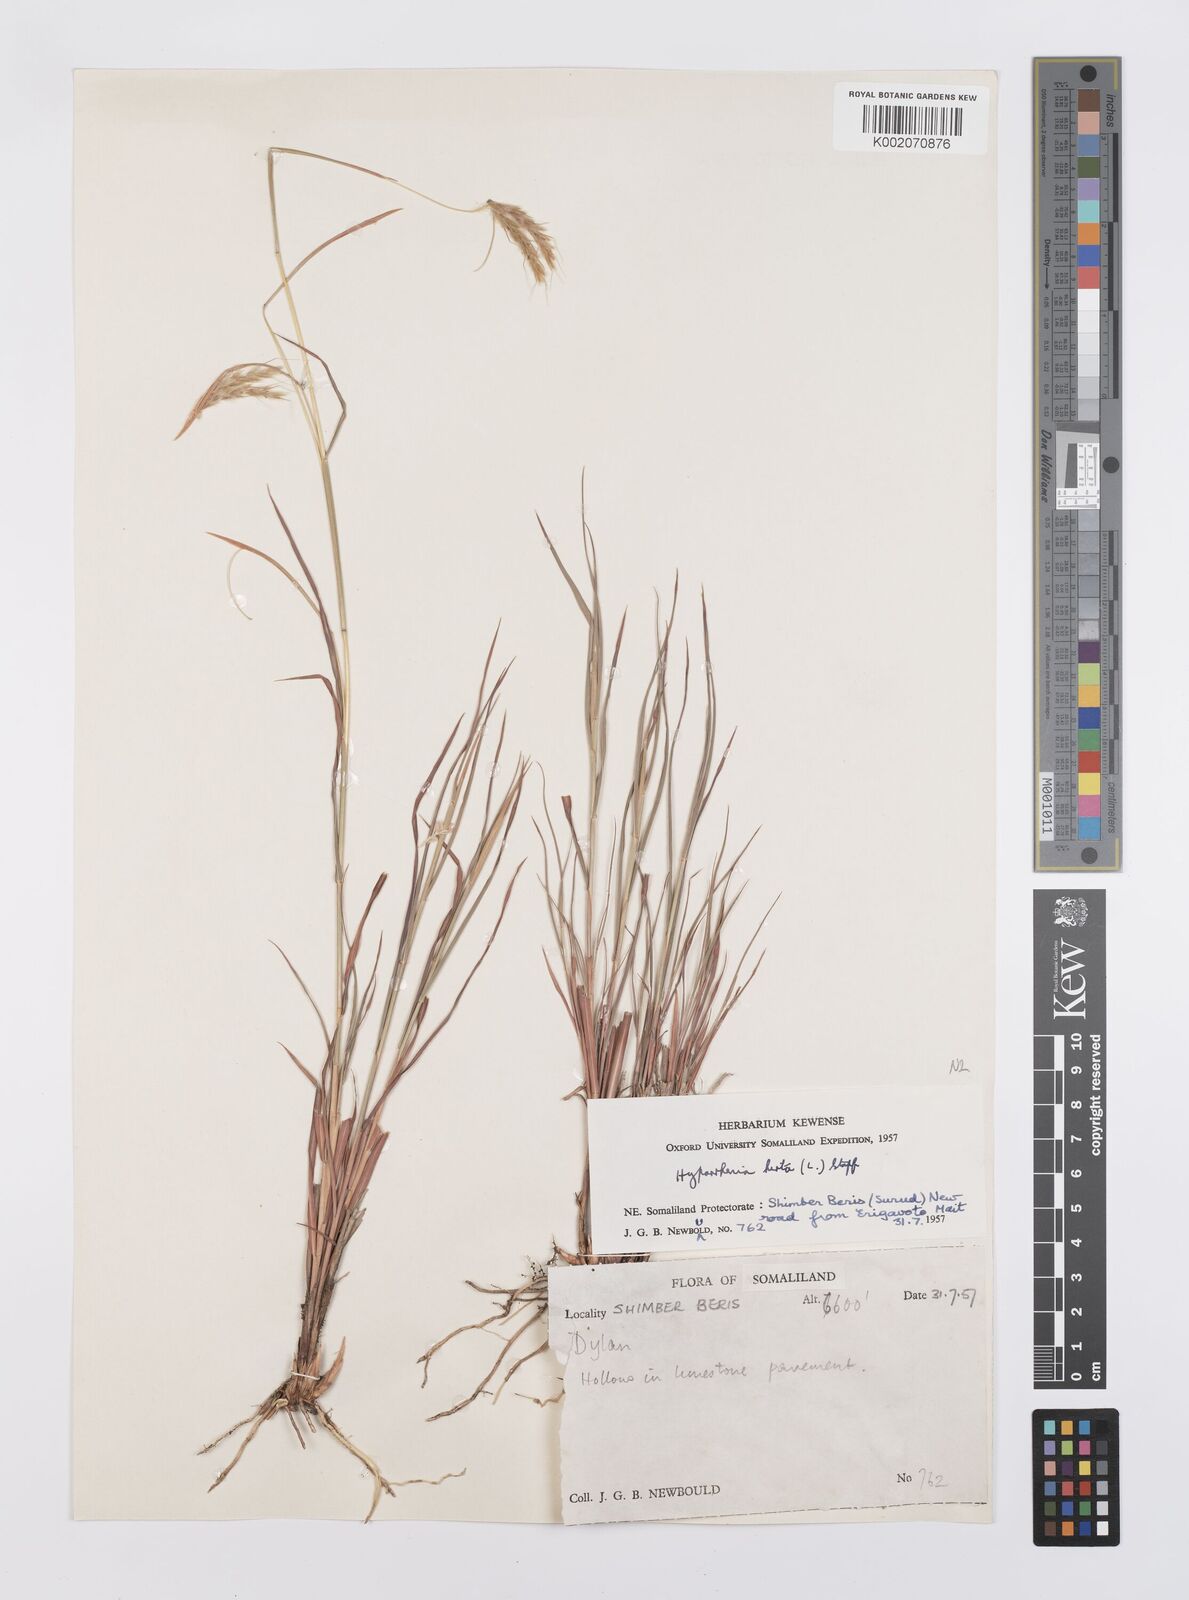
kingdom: Plantae
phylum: Tracheophyta
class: Liliopsida
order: Poales
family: Poaceae
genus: Hyparrhenia
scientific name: Hyparrhenia hirta
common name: Thatching grass
